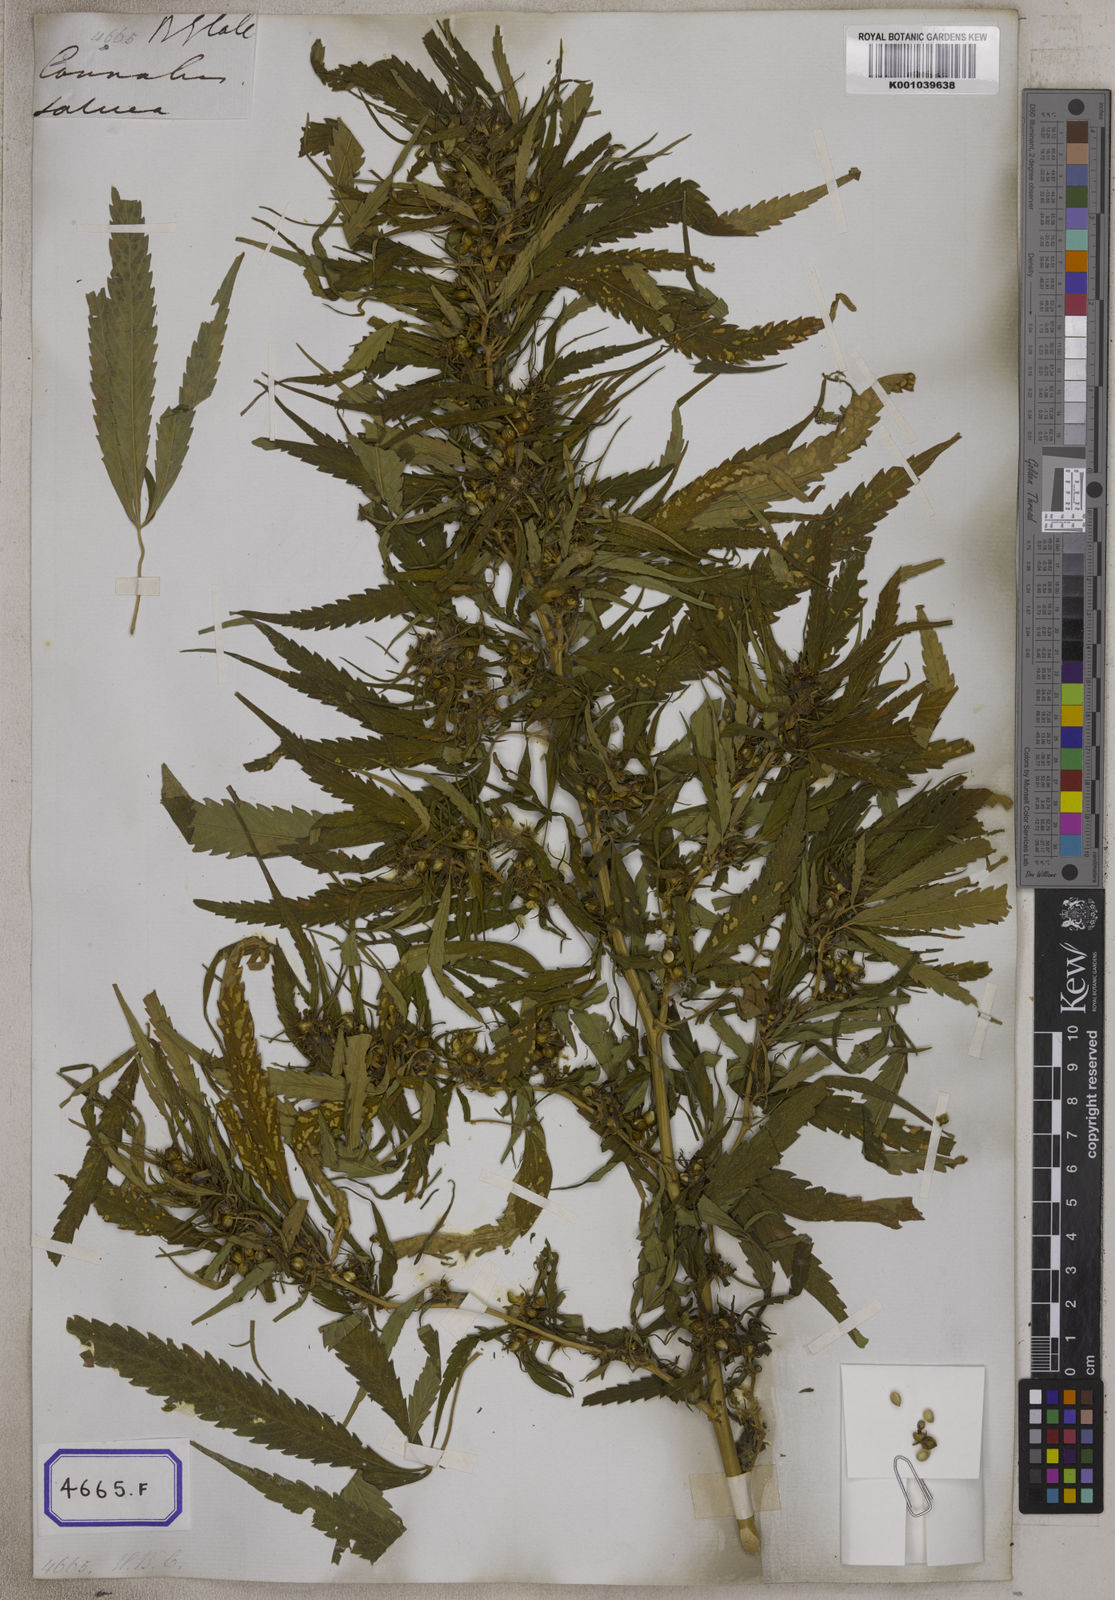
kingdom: Plantae
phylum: Tracheophyta
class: Magnoliopsida
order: Rosales
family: Cannabaceae
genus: Cannabis
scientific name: Cannabis sativa
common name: Hemp
